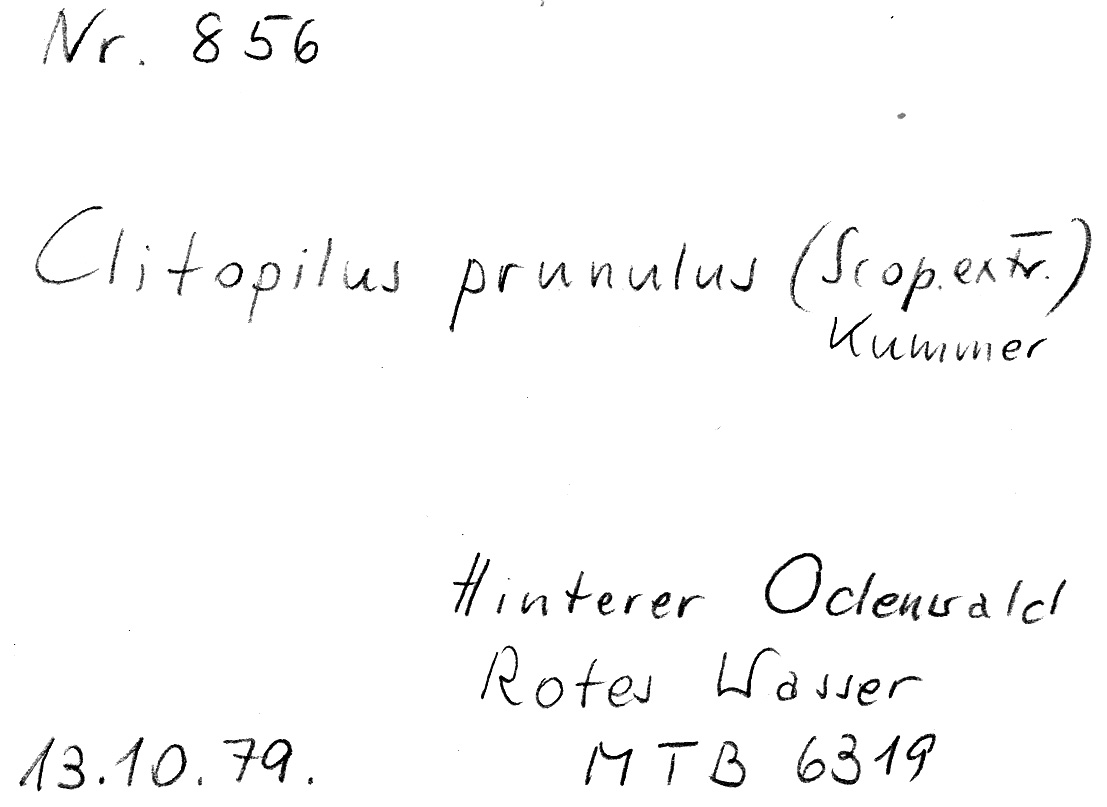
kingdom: Fungi
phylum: Basidiomycota
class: Agaricomycetes
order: Agaricales
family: Entolomataceae
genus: Clitopilus
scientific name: Clitopilus prunulus
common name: The miller
